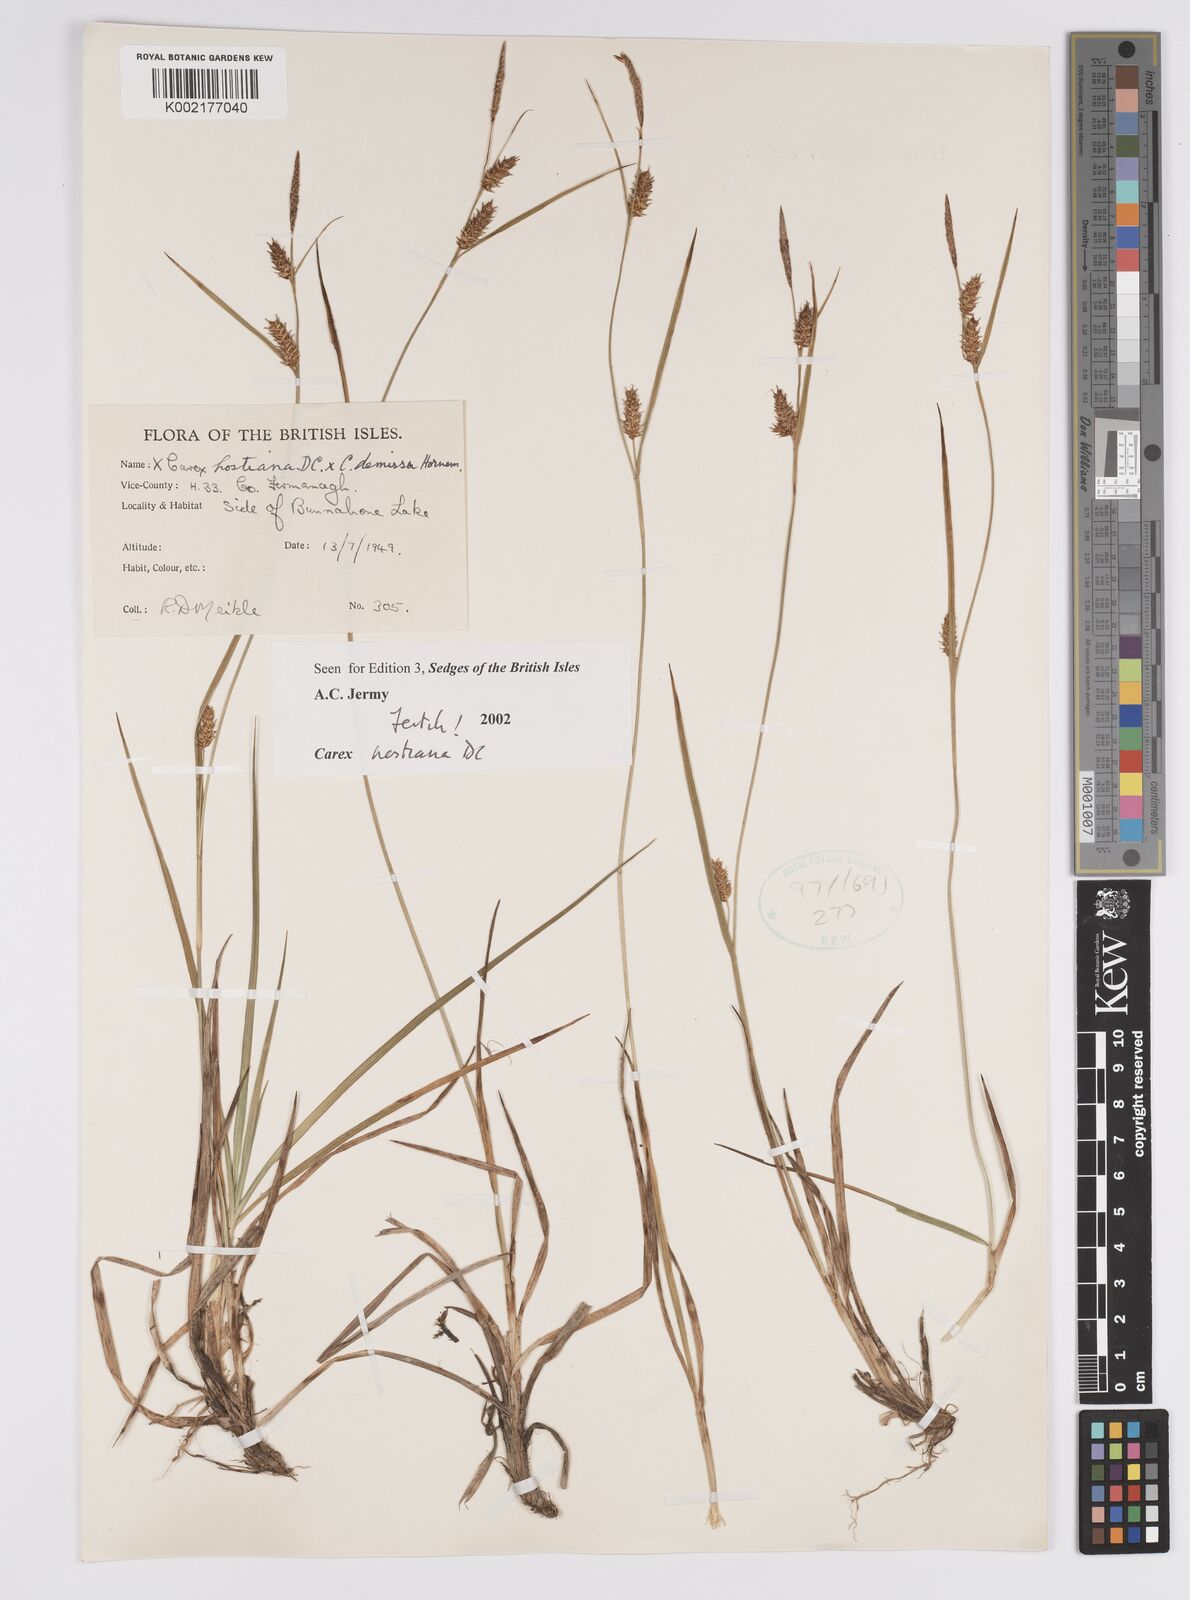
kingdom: Plantae
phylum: Tracheophyta
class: Liliopsida
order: Poales
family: Cyperaceae
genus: Carex
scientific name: Carex hostiana
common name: Tawny sedge
